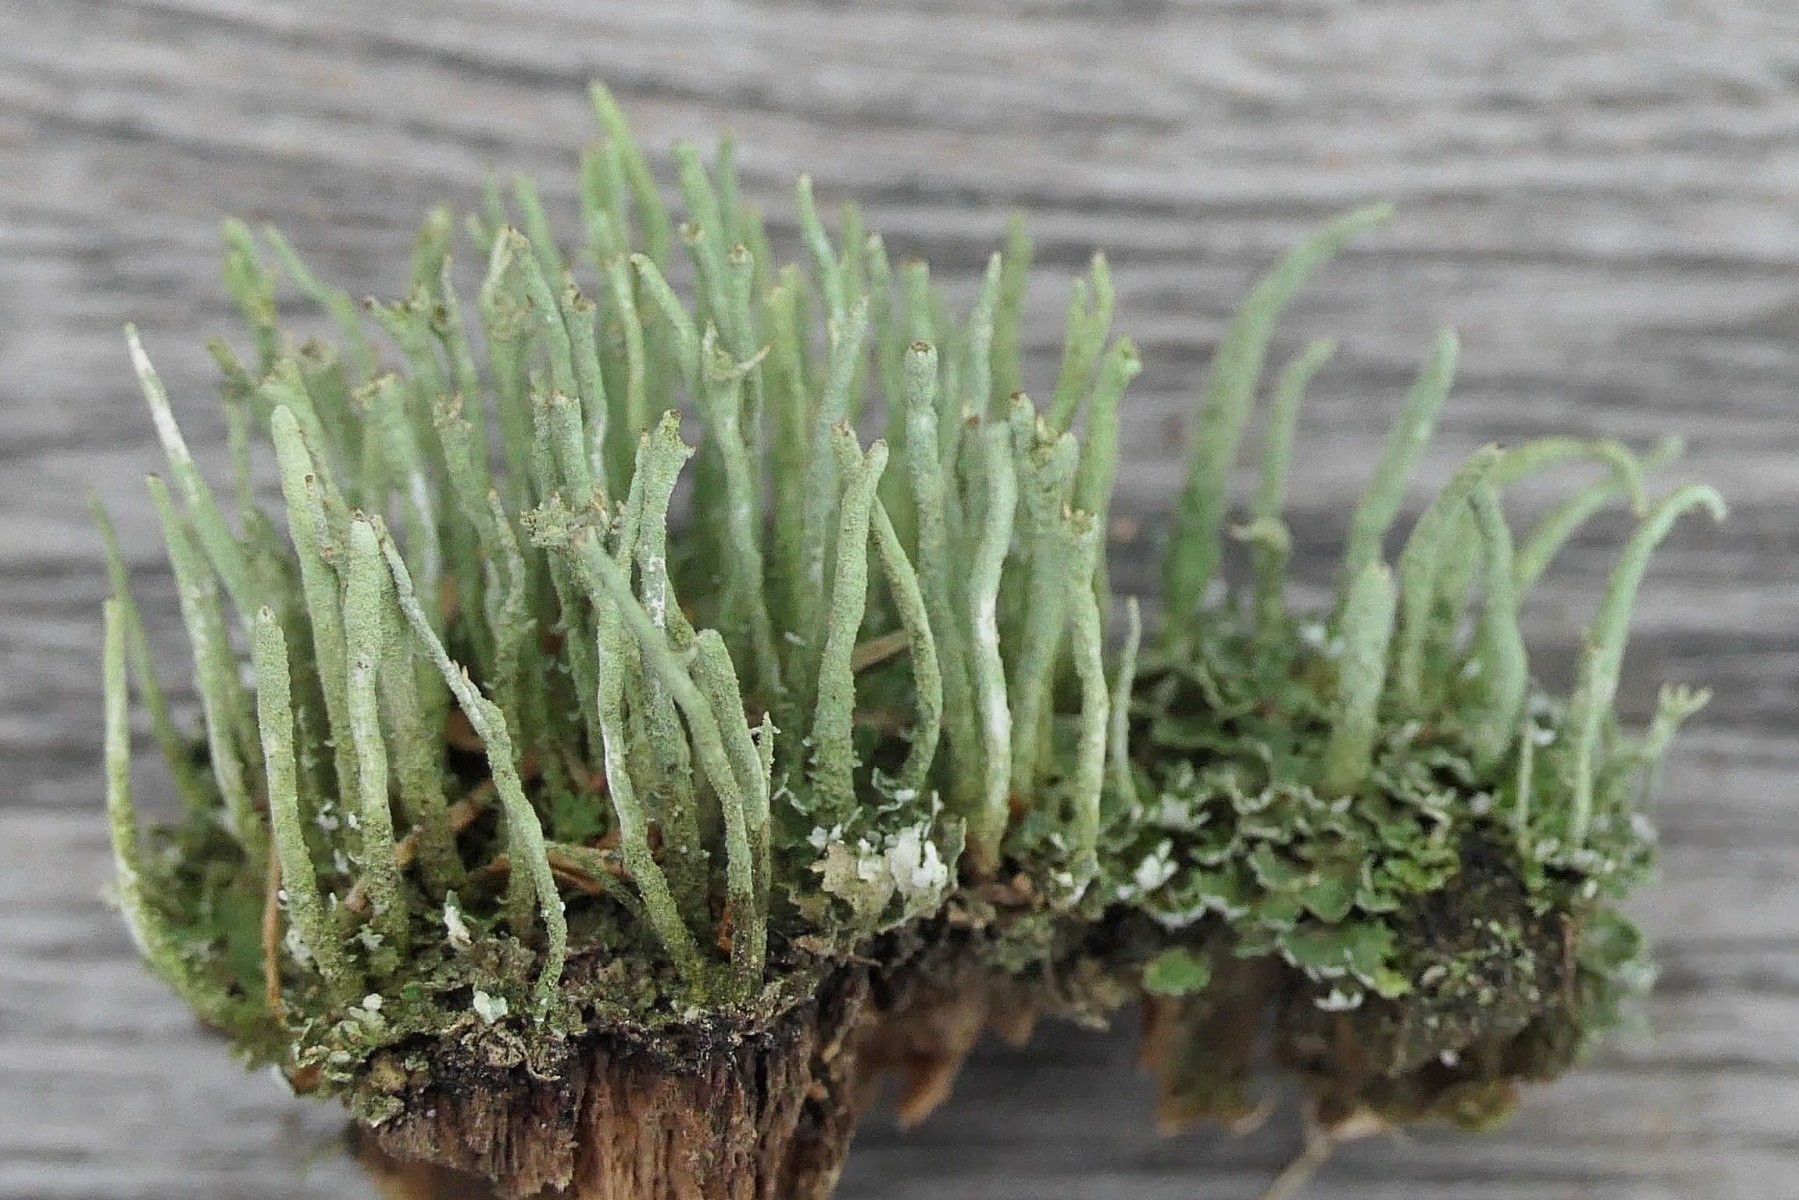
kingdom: Fungi
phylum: Ascomycota
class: Lecanoromycetes
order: Lecanorales
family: Cladoniaceae
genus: Cladonia
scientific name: Cladonia ochrochlora
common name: stød-bægerlav
